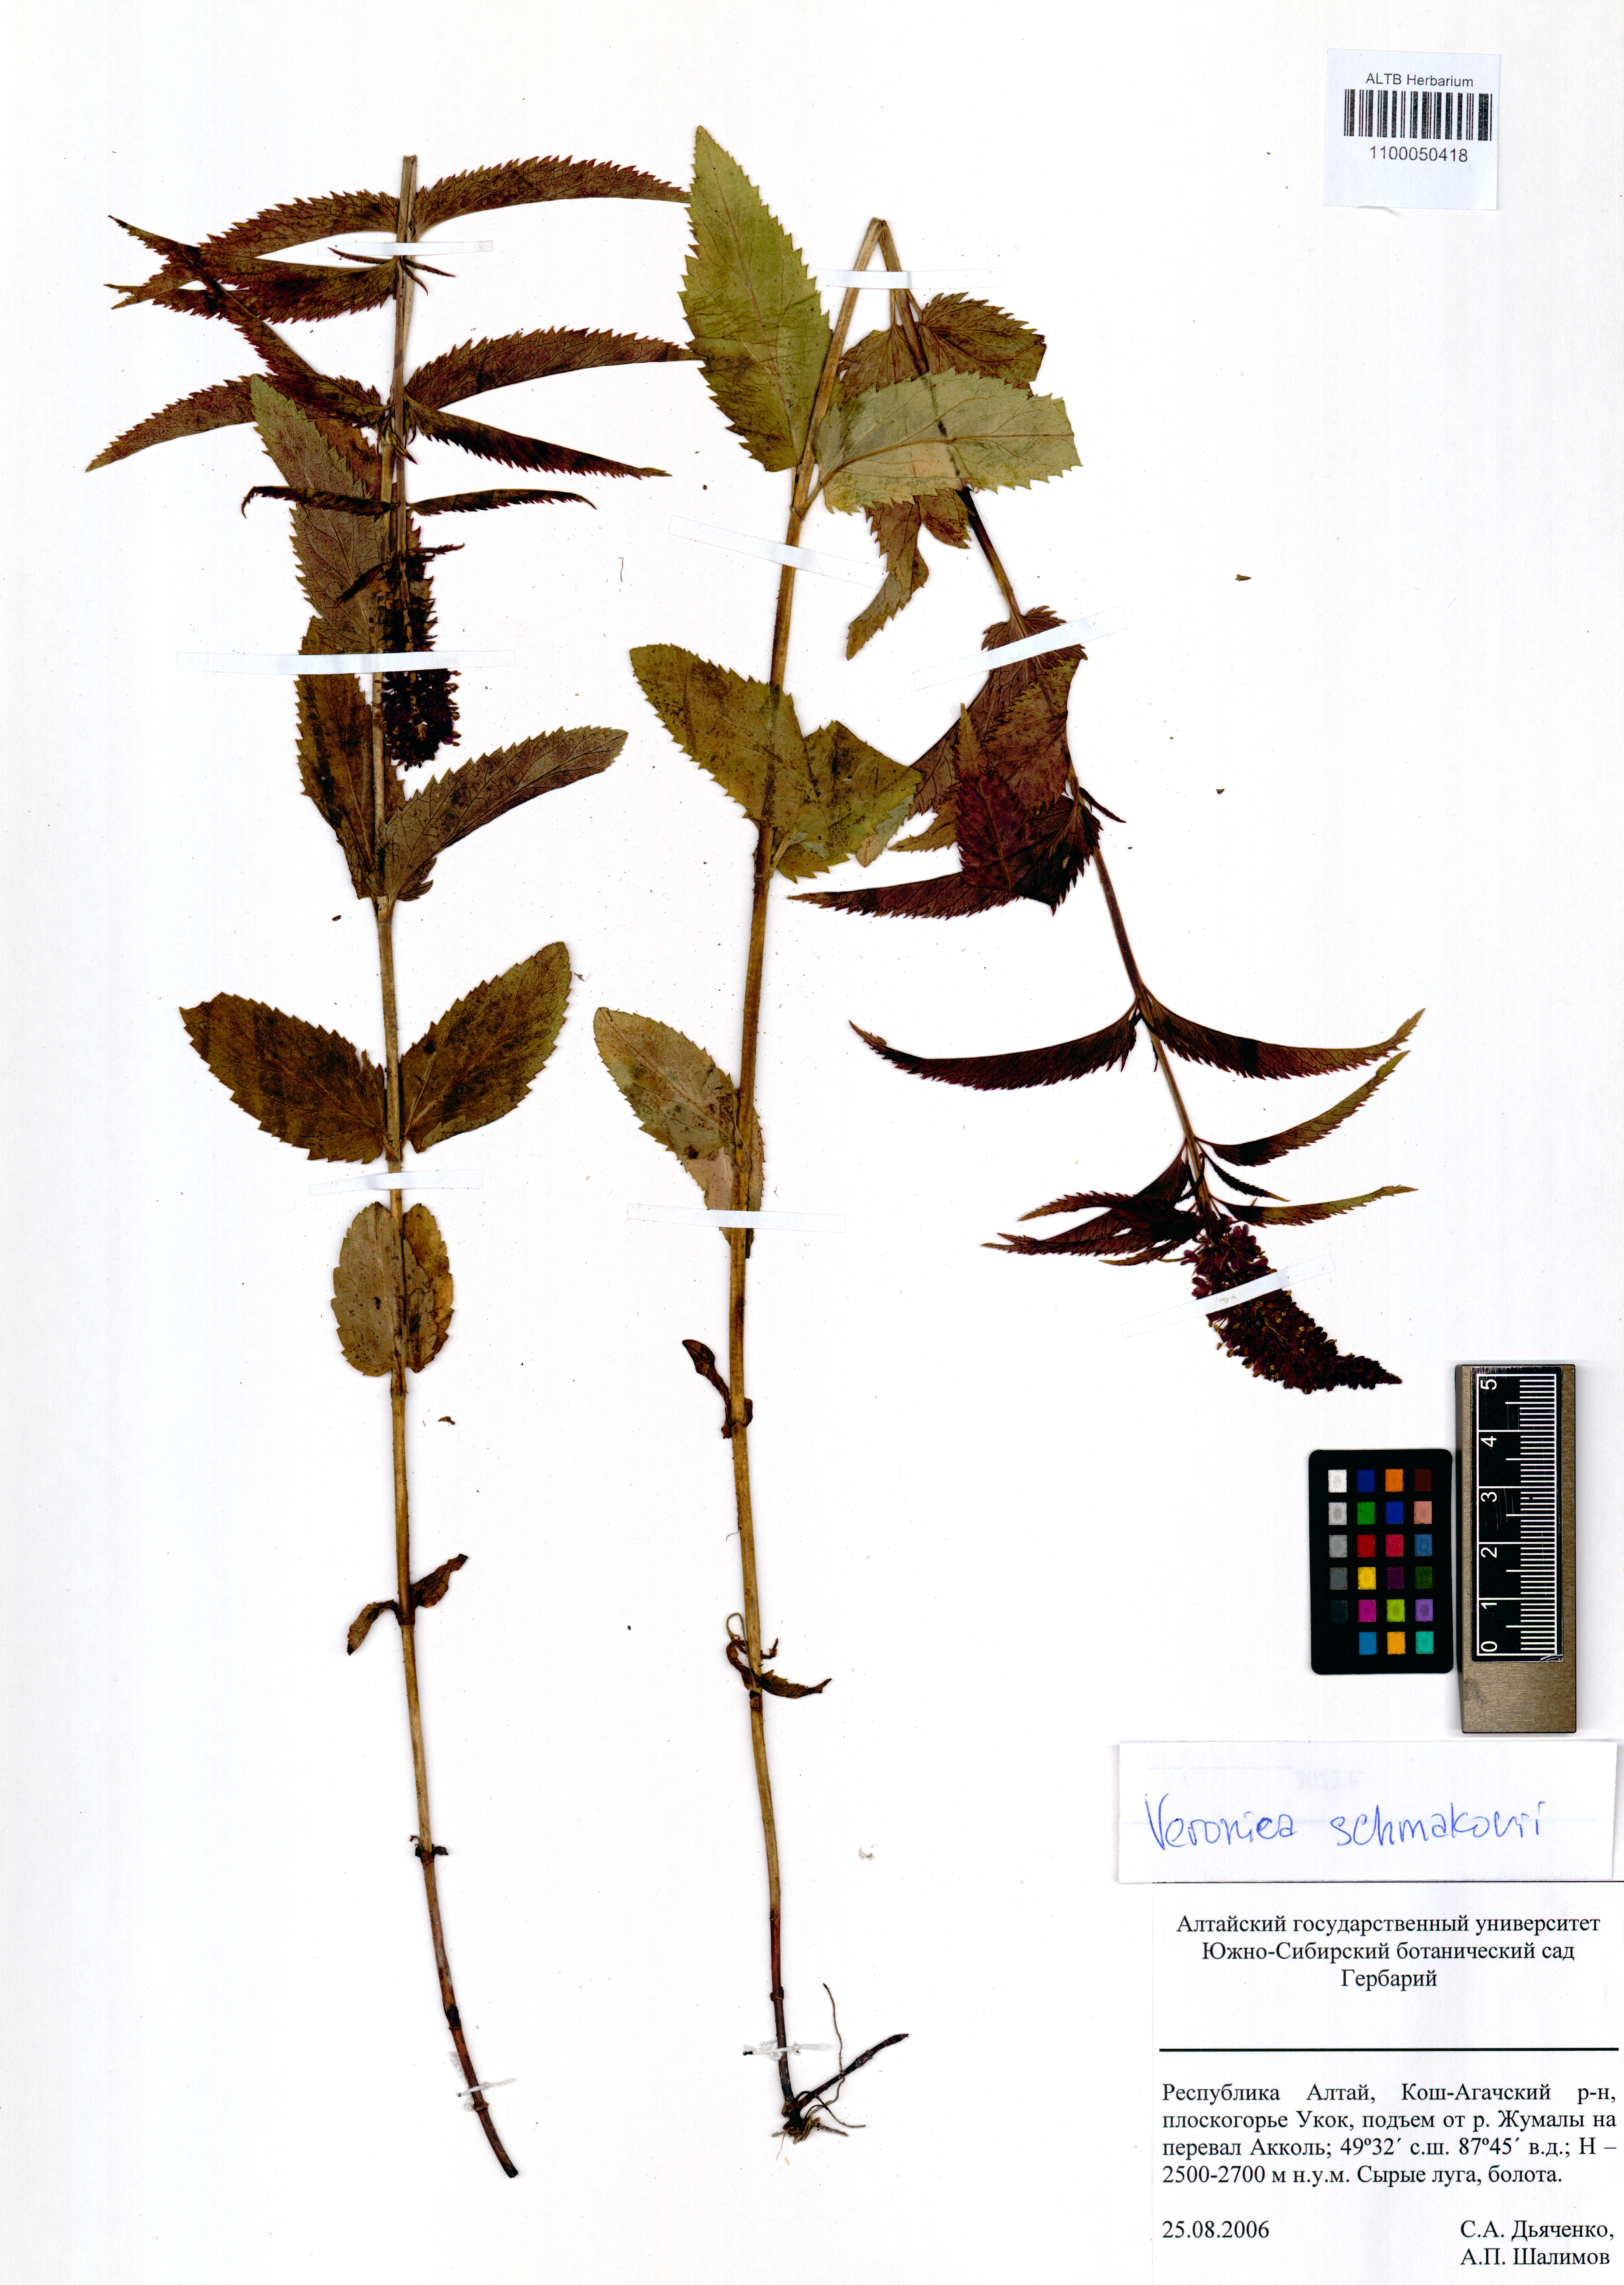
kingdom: Plantae
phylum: Tracheophyta
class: Magnoliopsida
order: Lamiales
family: Plantaginaceae
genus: Veronica
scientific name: Veronica schmakovii
